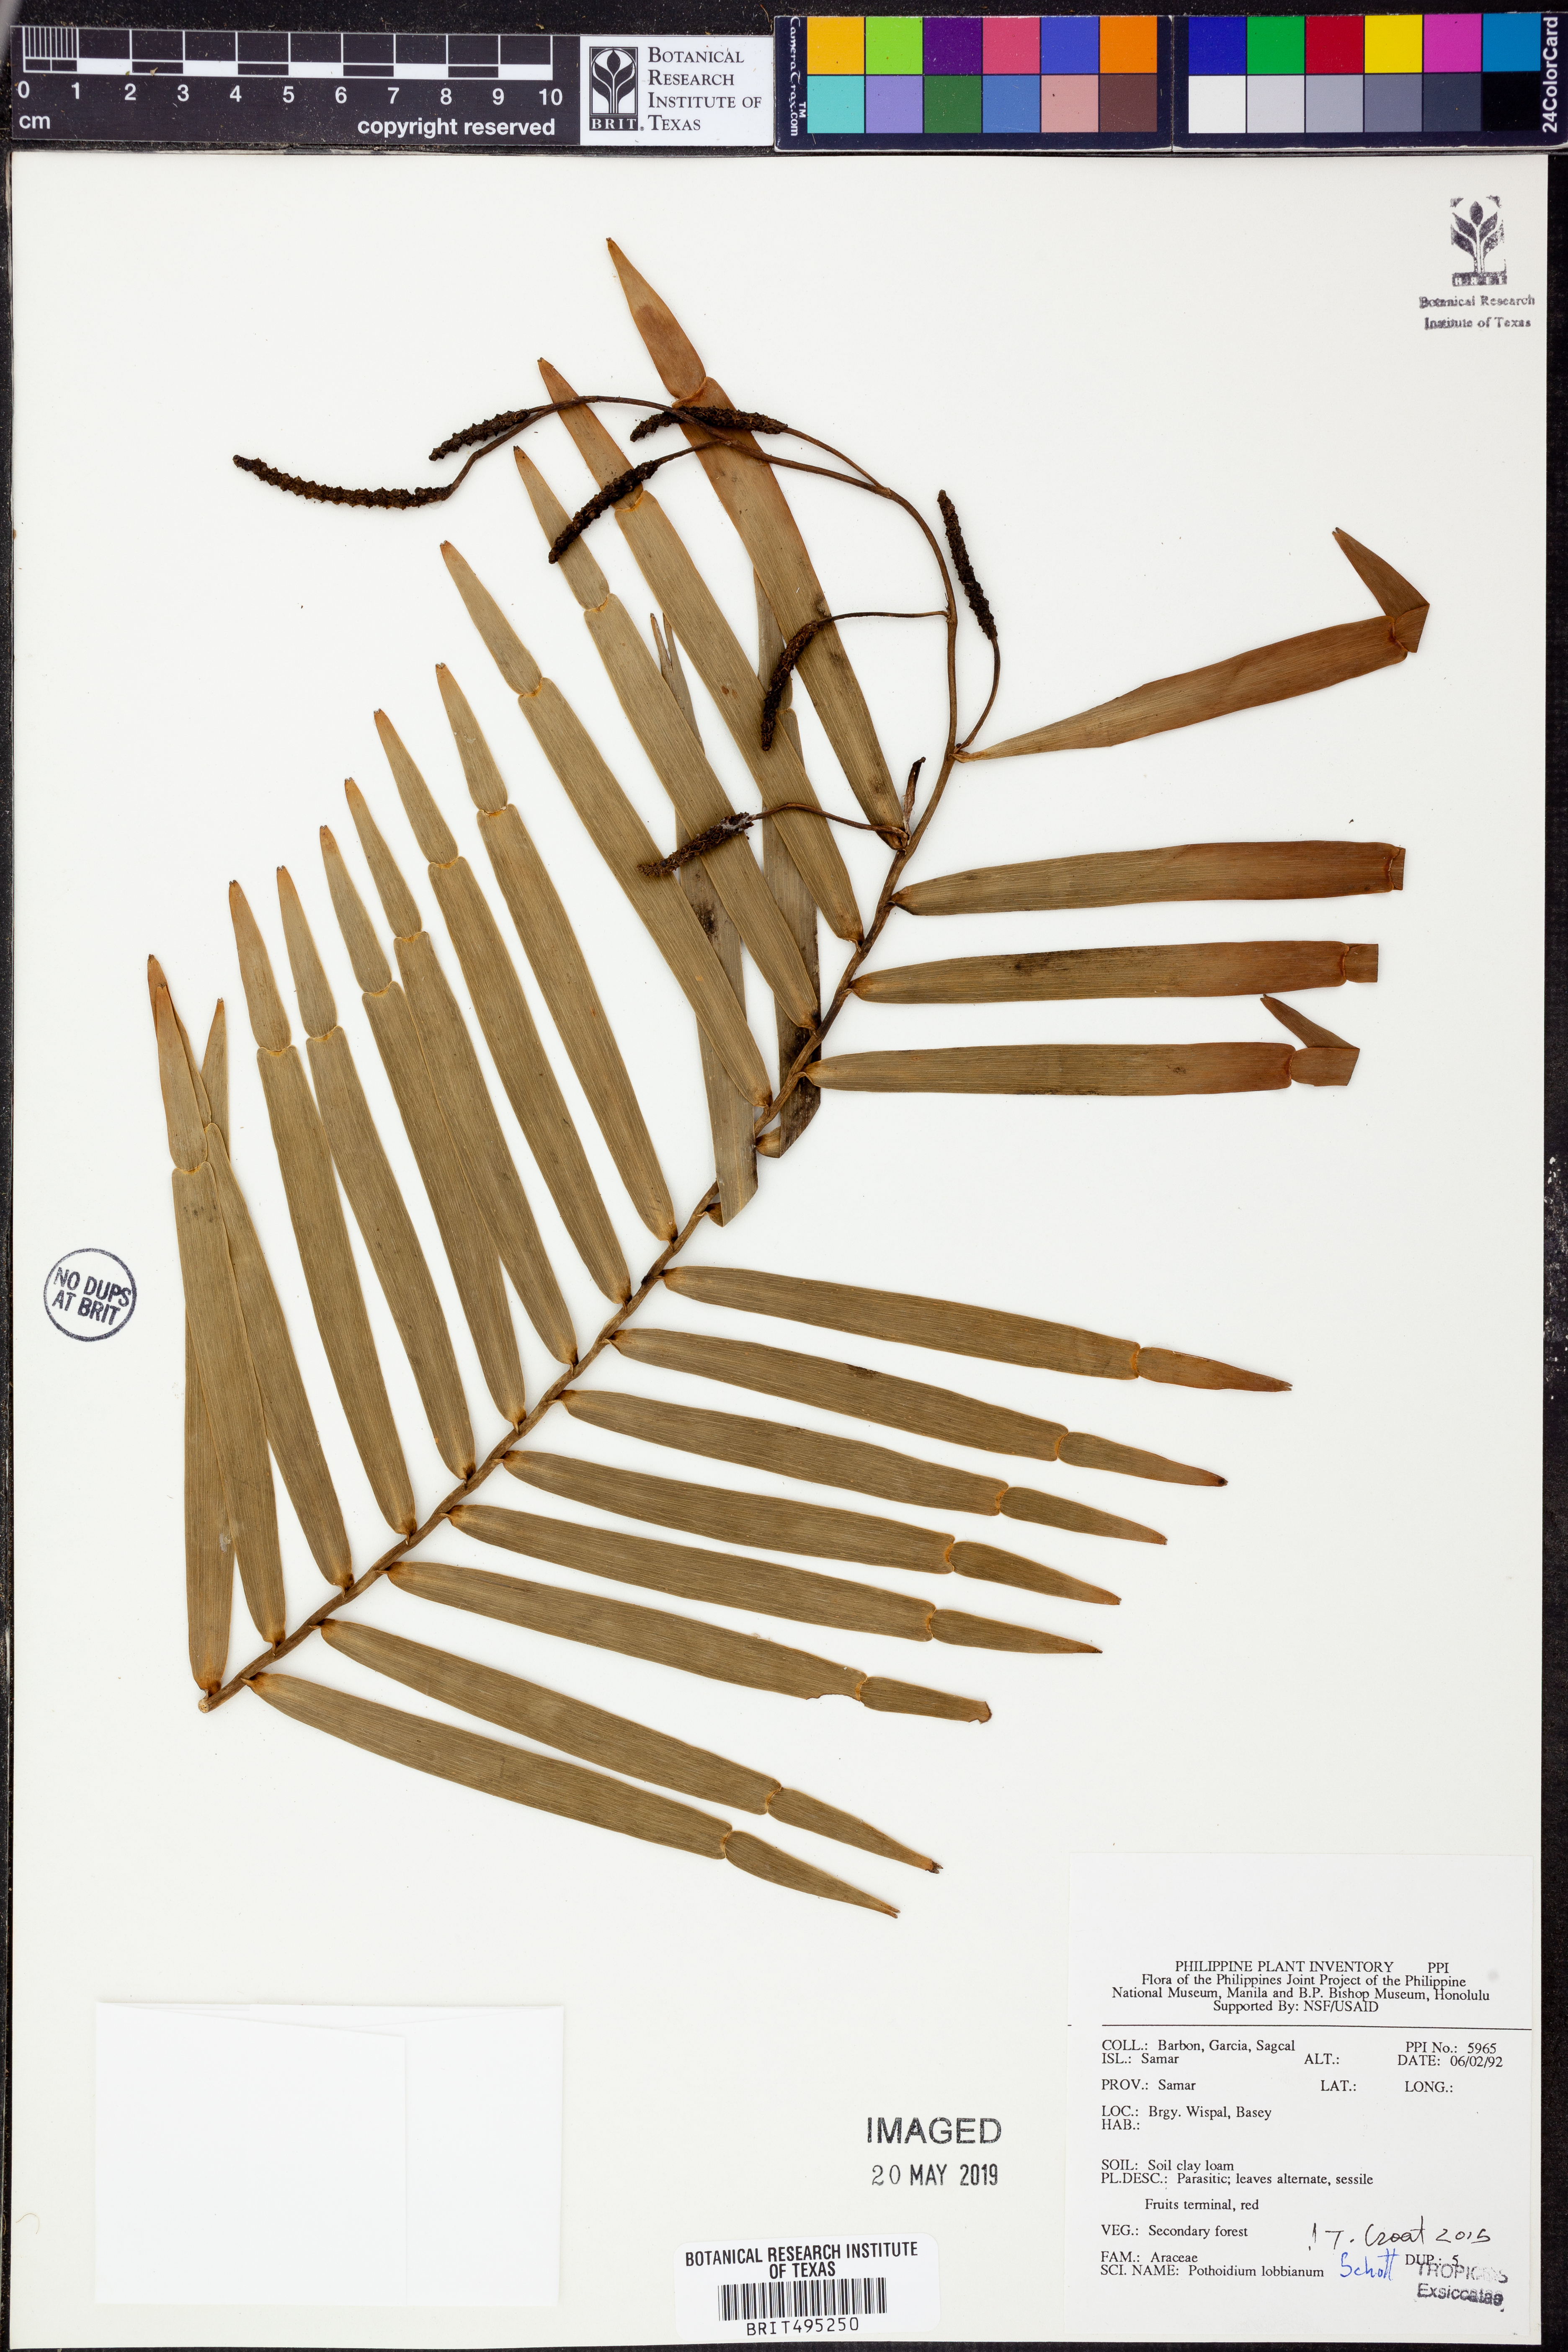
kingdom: Plantae
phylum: Tracheophyta
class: Liliopsida
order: Alismatales
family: Araceae
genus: Pothoidium
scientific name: Pothoidium lobbianum
